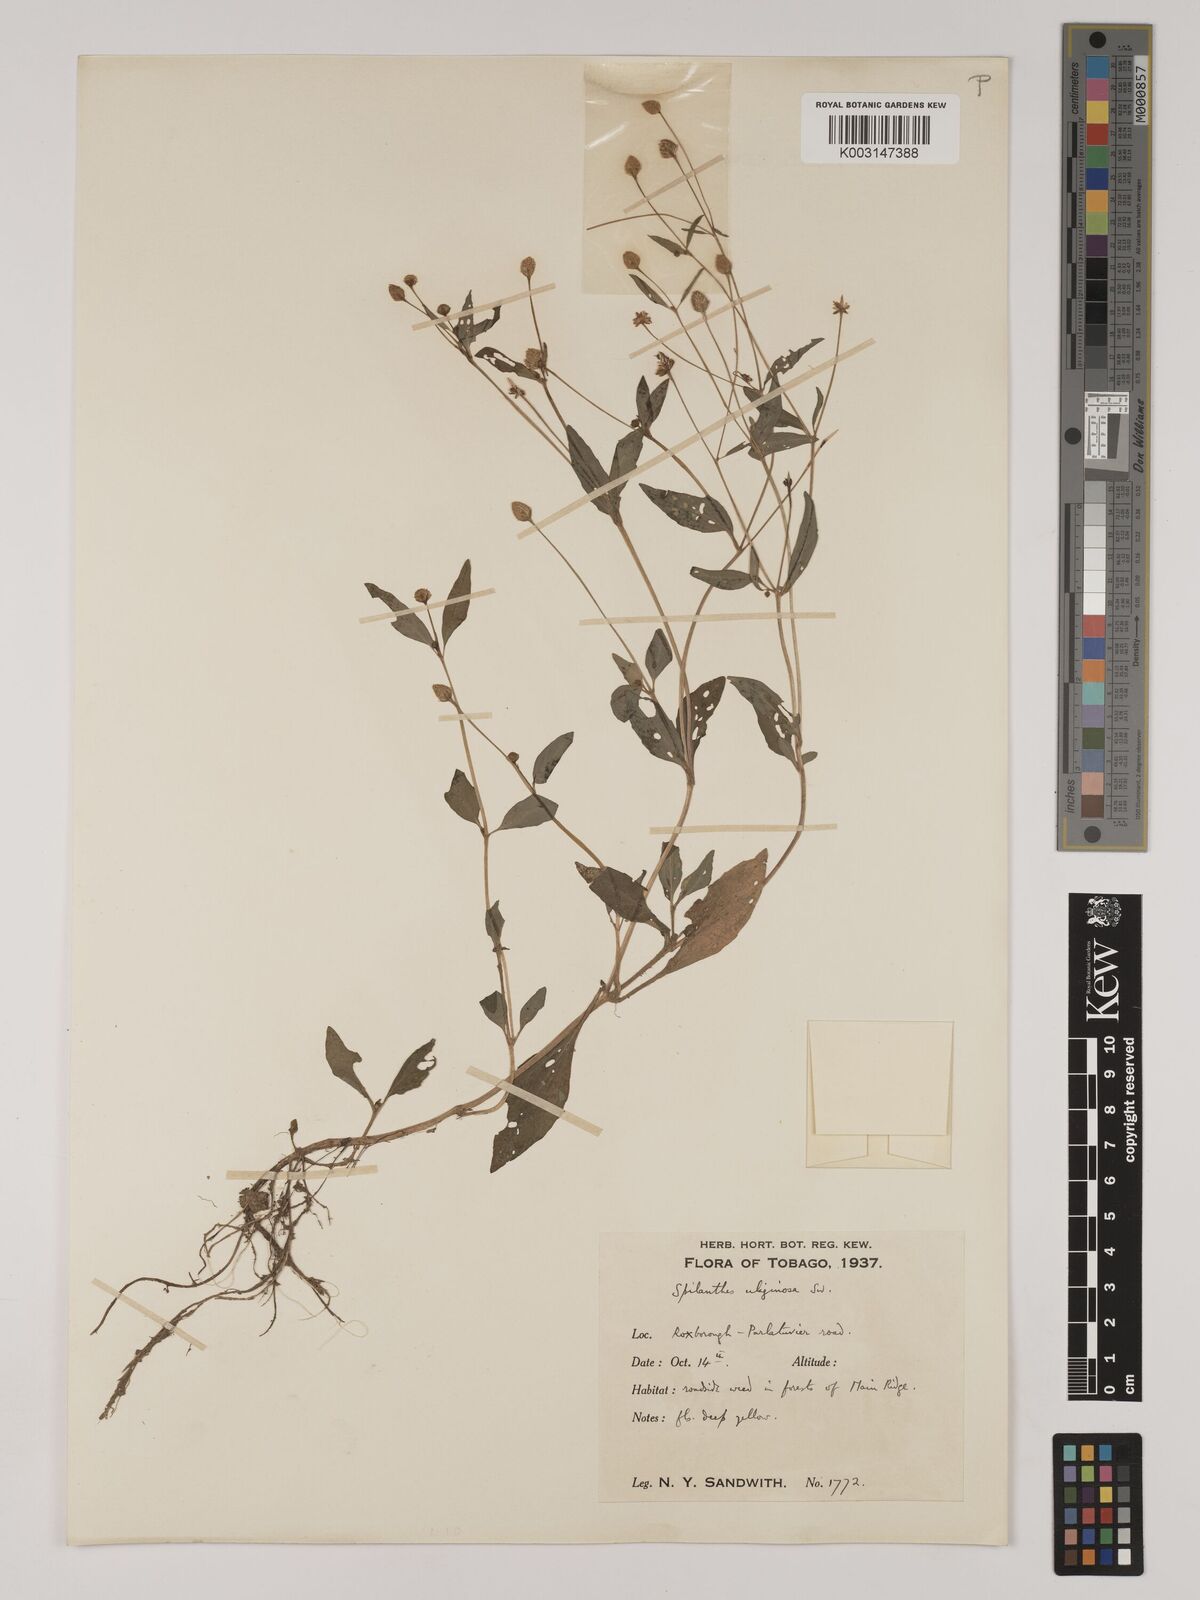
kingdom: Plantae
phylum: Tracheophyta
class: Magnoliopsida
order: Asterales
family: Asteraceae
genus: Acmella
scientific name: Acmella uliginosa
